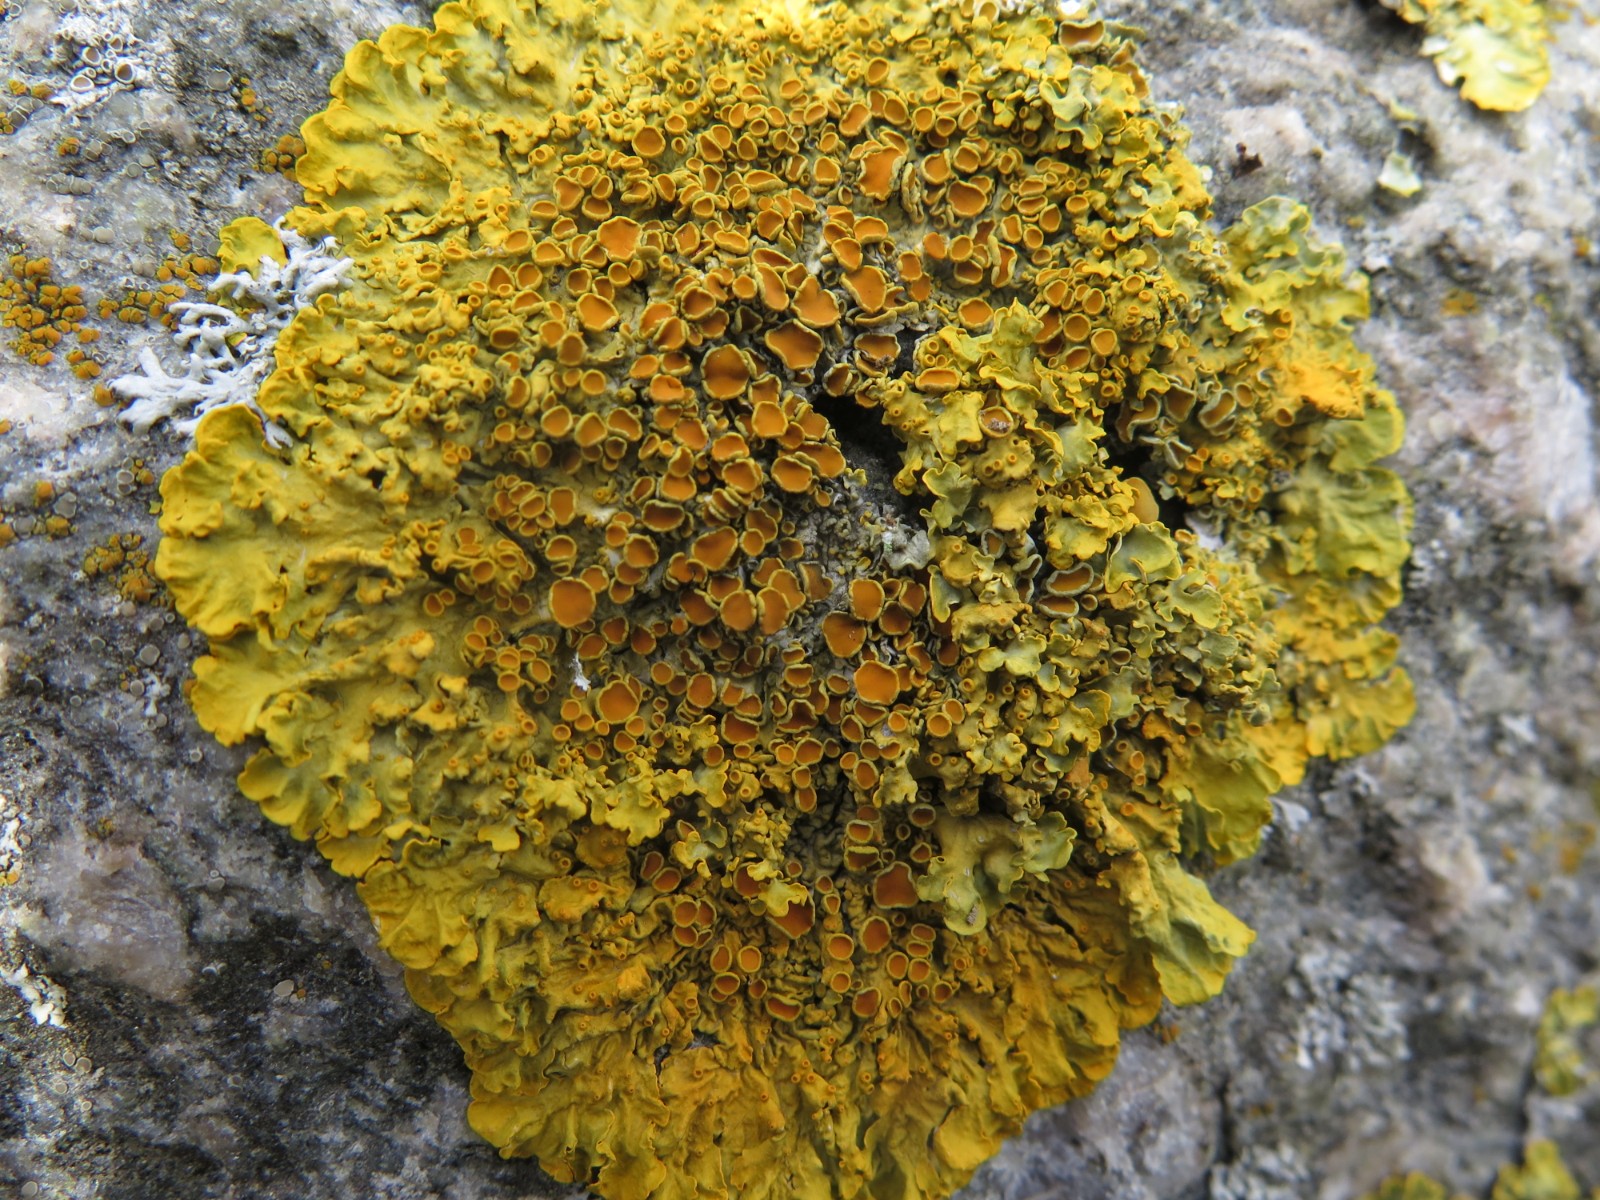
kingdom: Fungi
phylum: Ascomycota
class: Lecanoromycetes
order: Teloschistales
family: Teloschistaceae
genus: Xanthoria
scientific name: Xanthoria parietina
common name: almindelig væggelav
